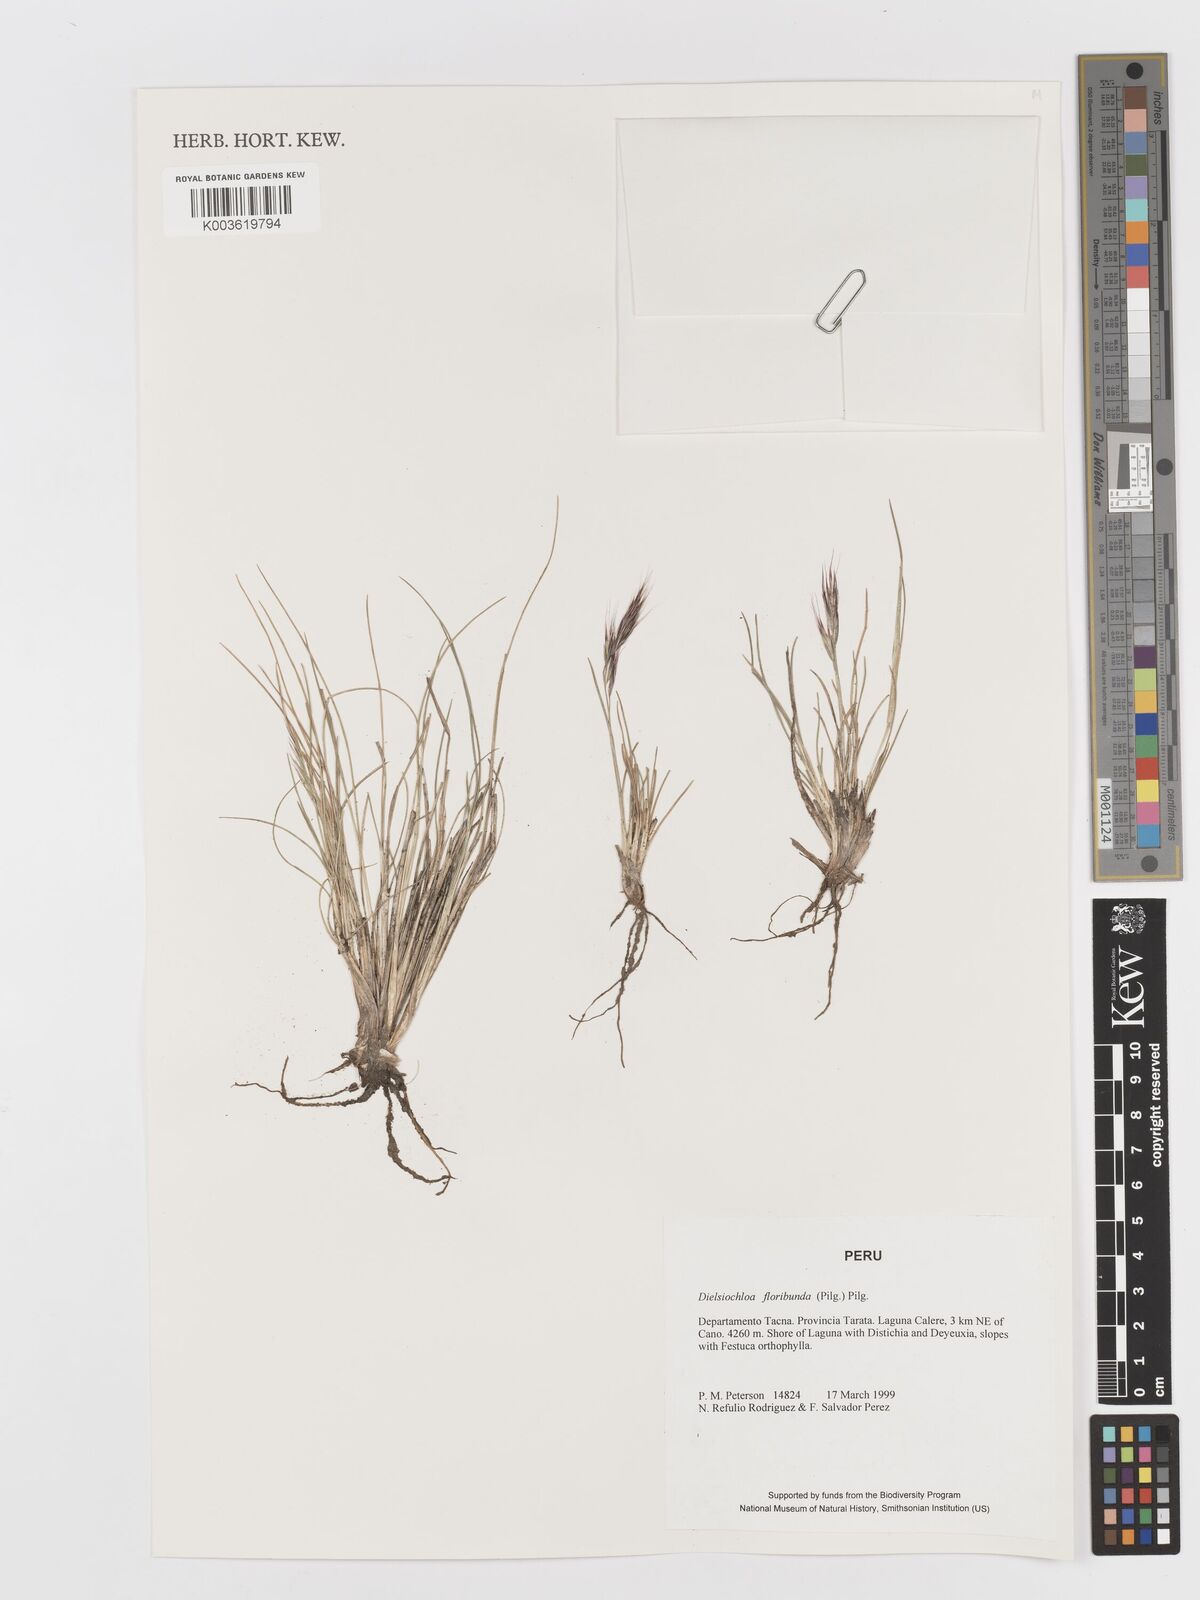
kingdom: Plantae
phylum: Tracheophyta
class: Liliopsida
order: Poales
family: Poaceae
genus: Festuca
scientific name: Festuca floribunda
